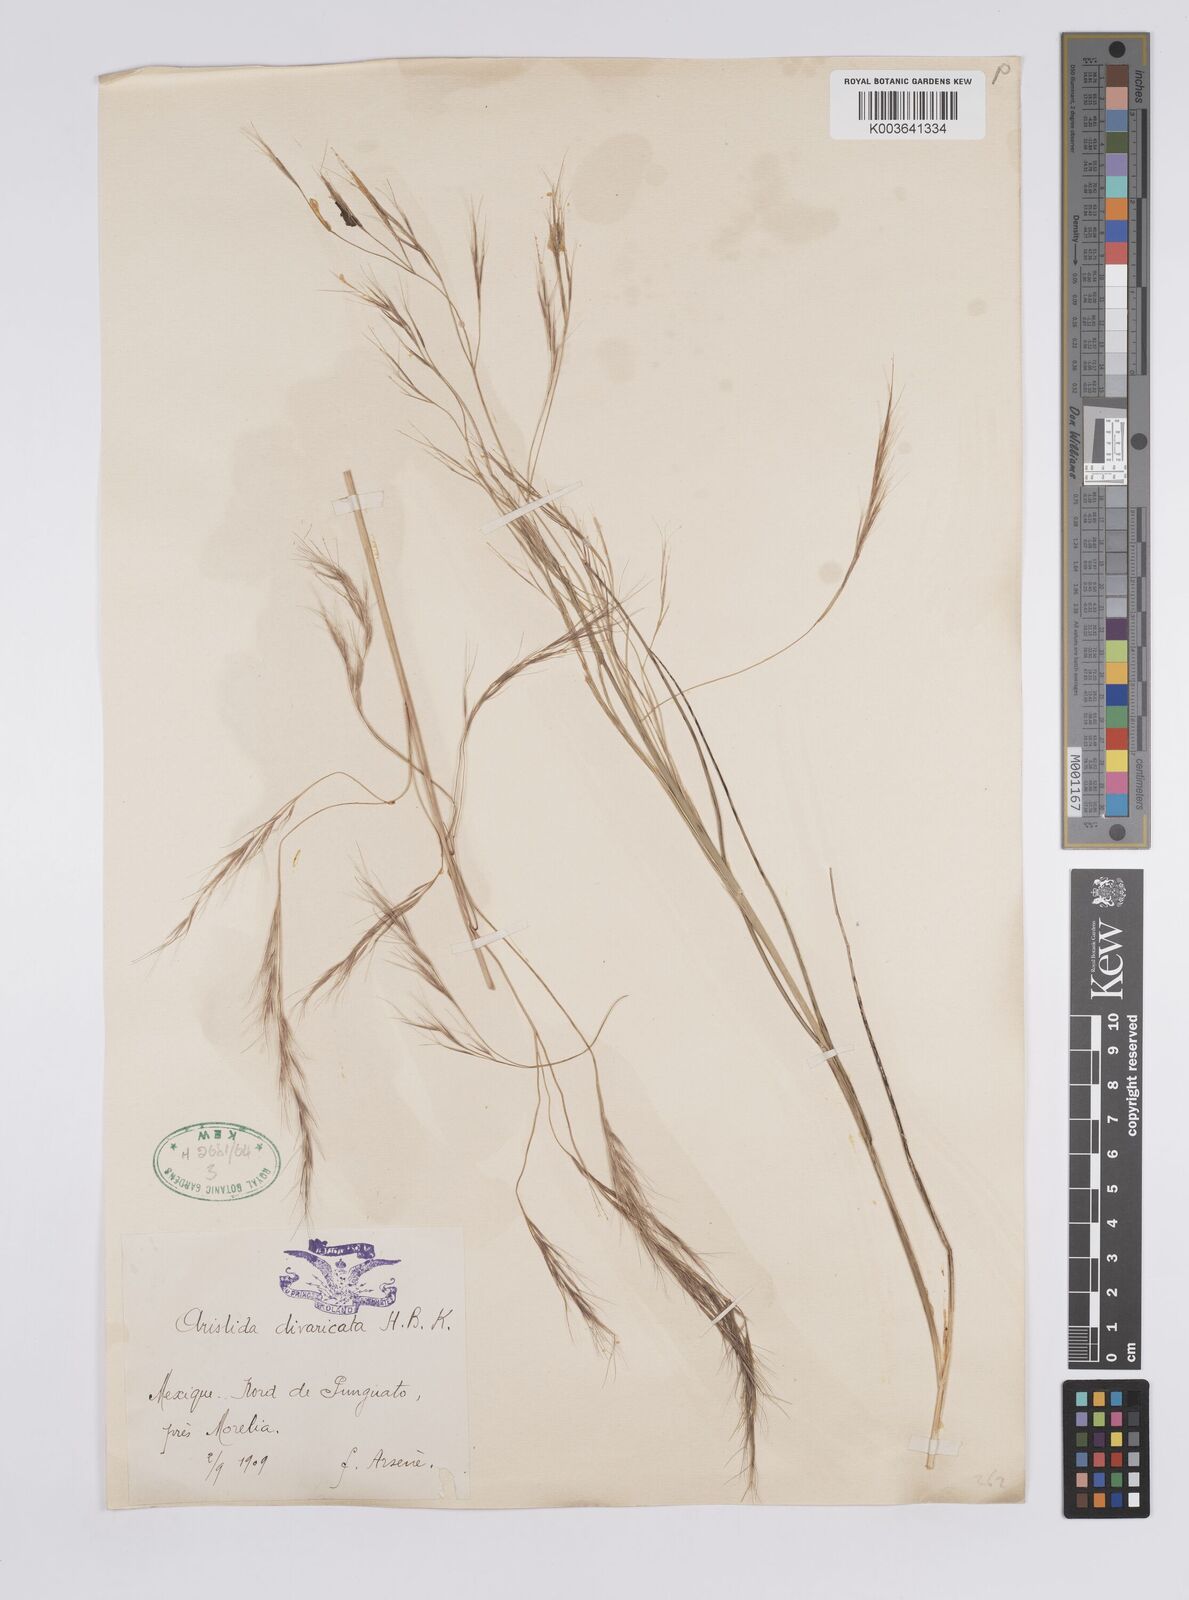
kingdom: Plantae
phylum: Tracheophyta
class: Liliopsida
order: Poales
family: Poaceae
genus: Aristida
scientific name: Aristida divaricata
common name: Poverty grass
